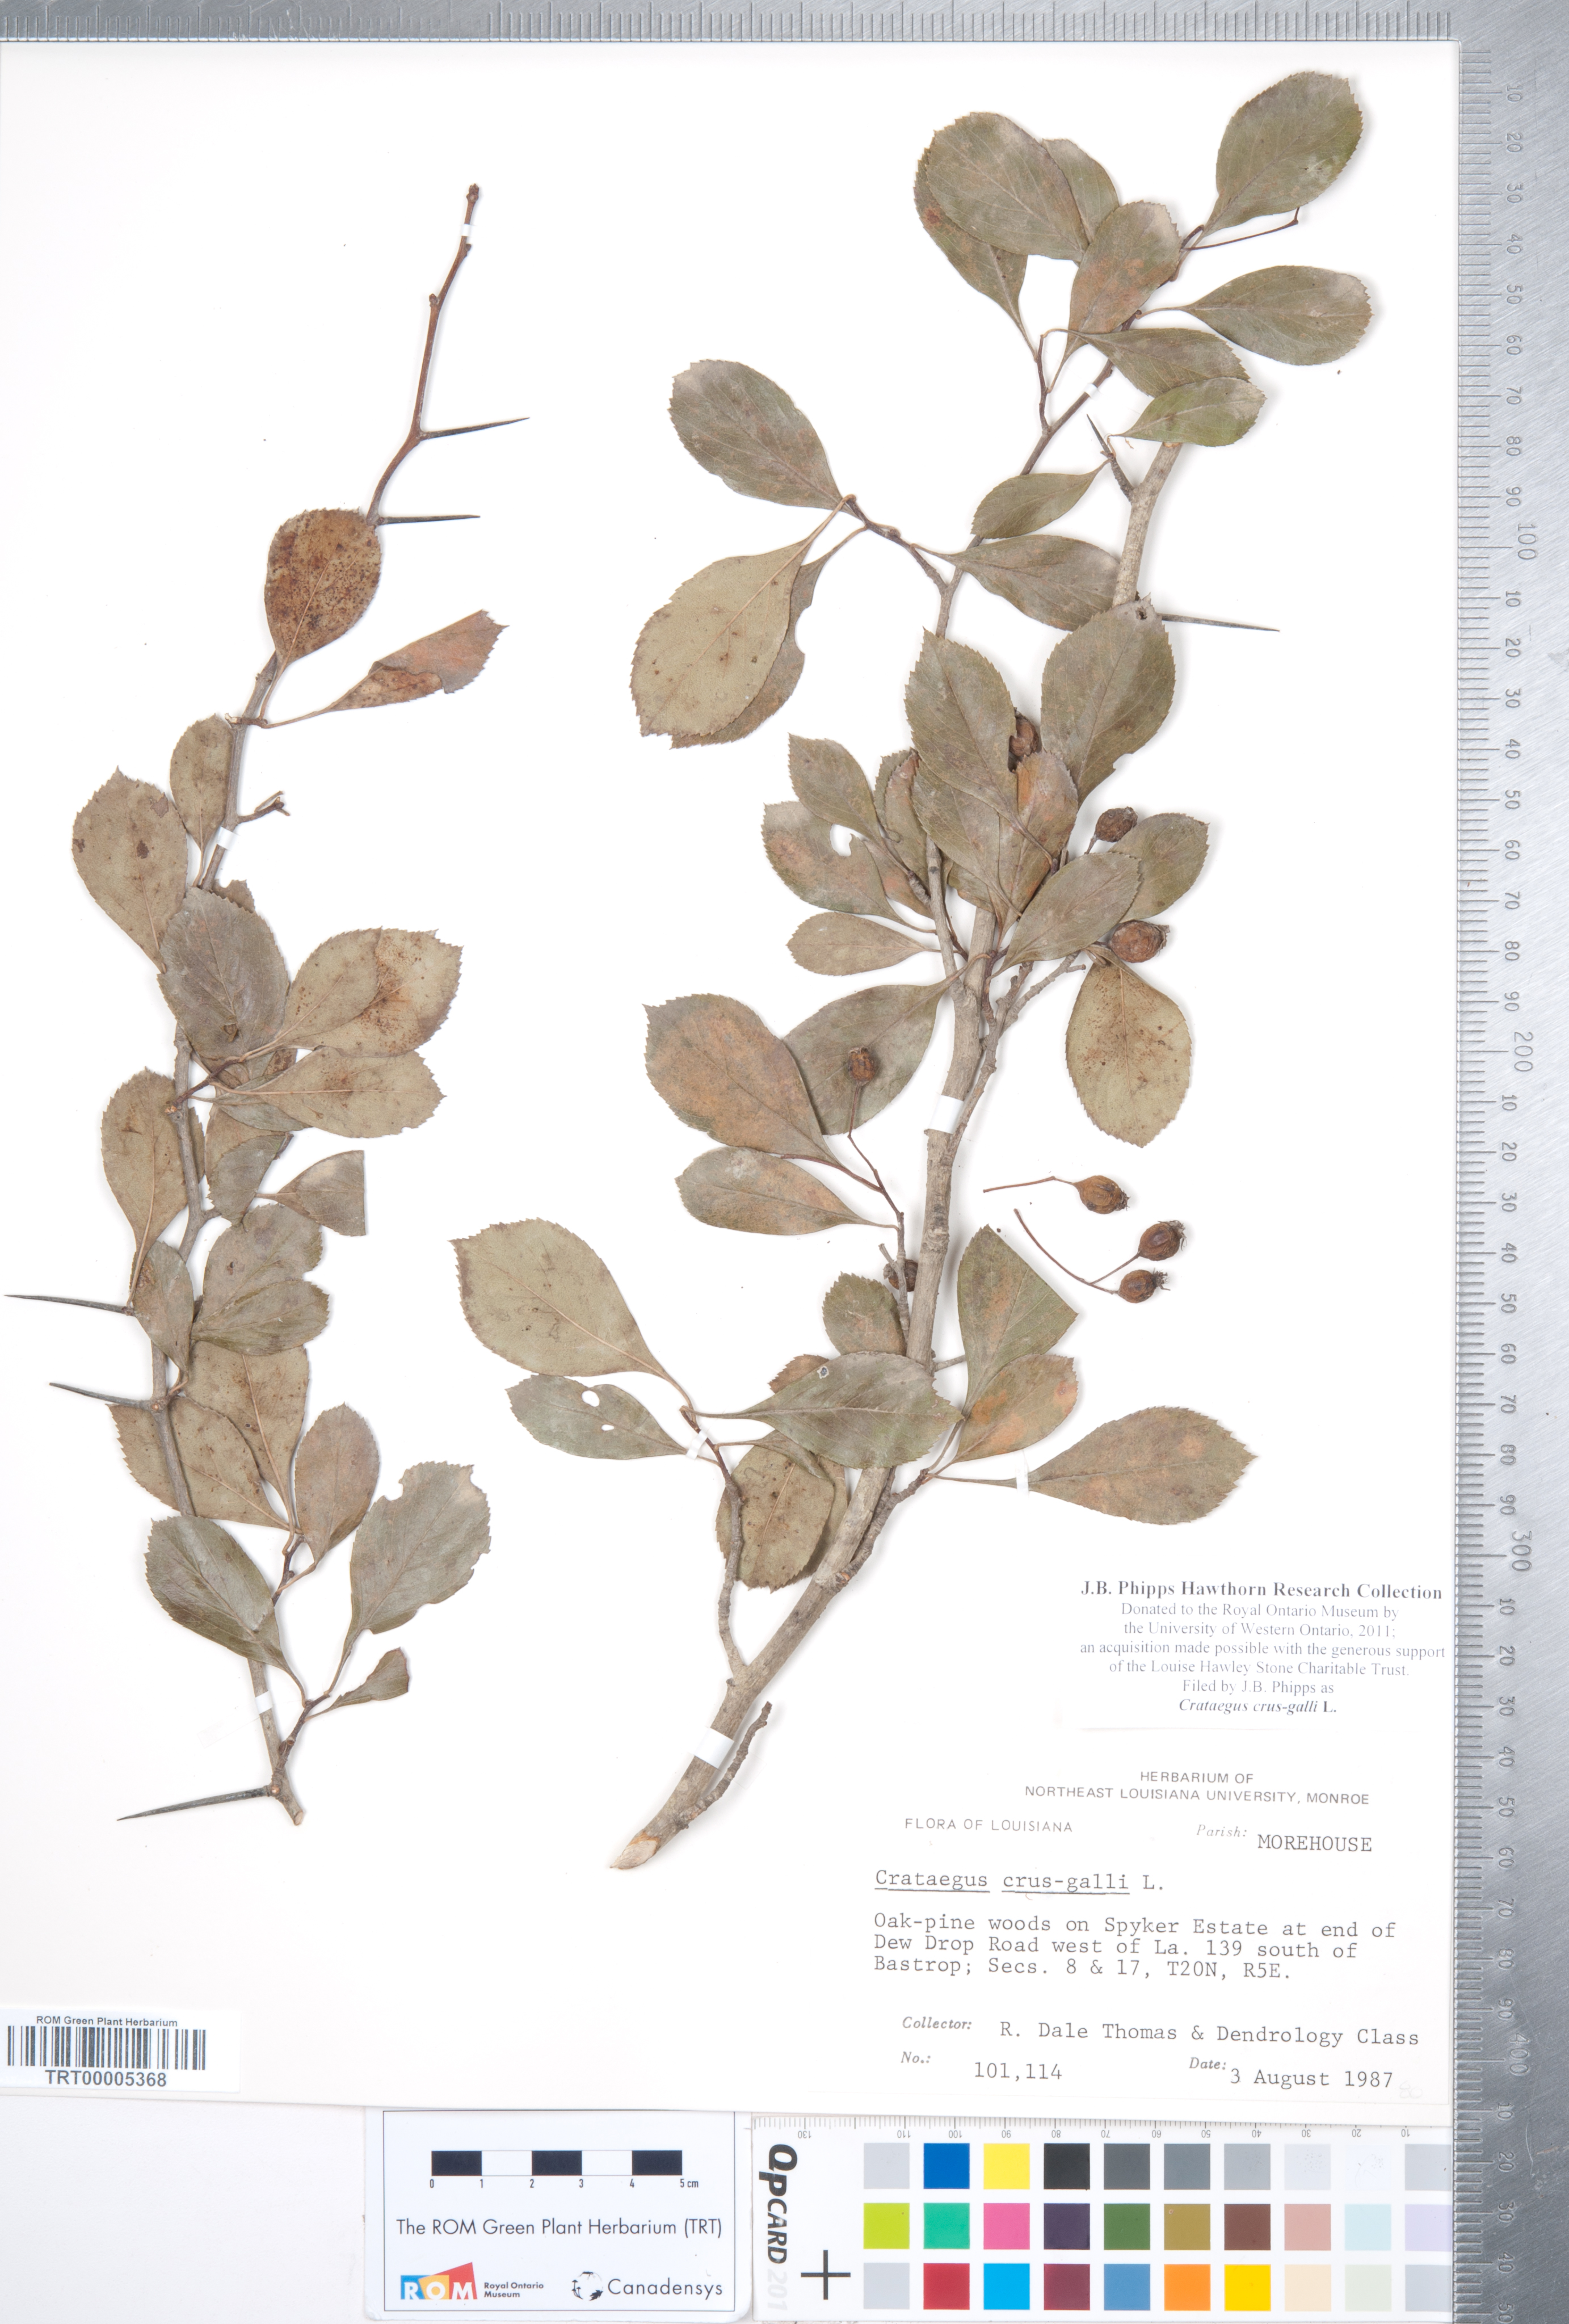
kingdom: Plantae
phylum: Tracheophyta
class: Magnoliopsida
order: Rosales
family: Rosaceae
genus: Crataegus
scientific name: Crataegus crus-galli
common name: Cockspurthorn
